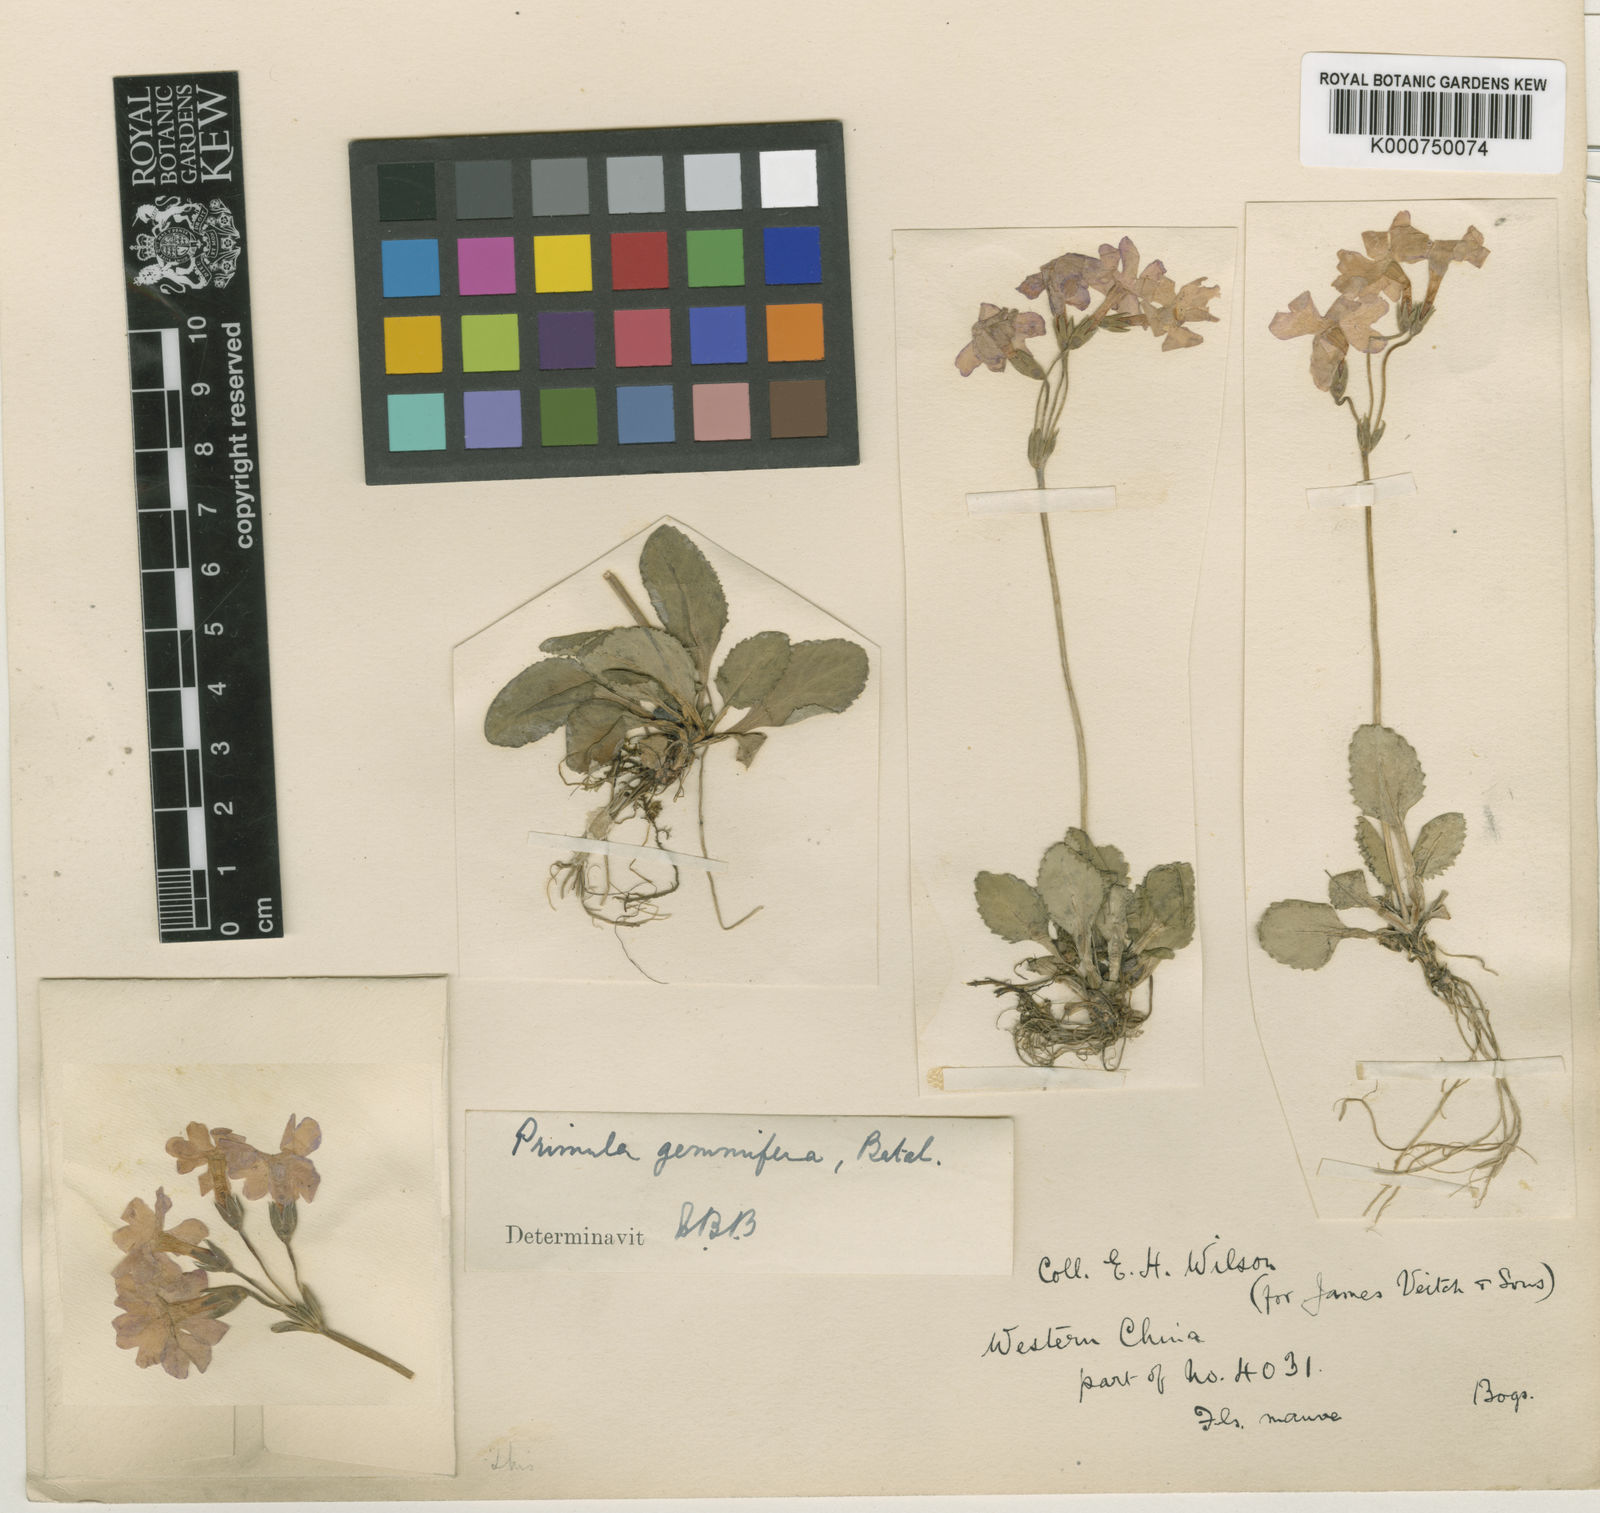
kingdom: Plantae
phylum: Tracheophyta
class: Magnoliopsida
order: Ericales
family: Primulaceae
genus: Primula
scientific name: Primula gemmifera
